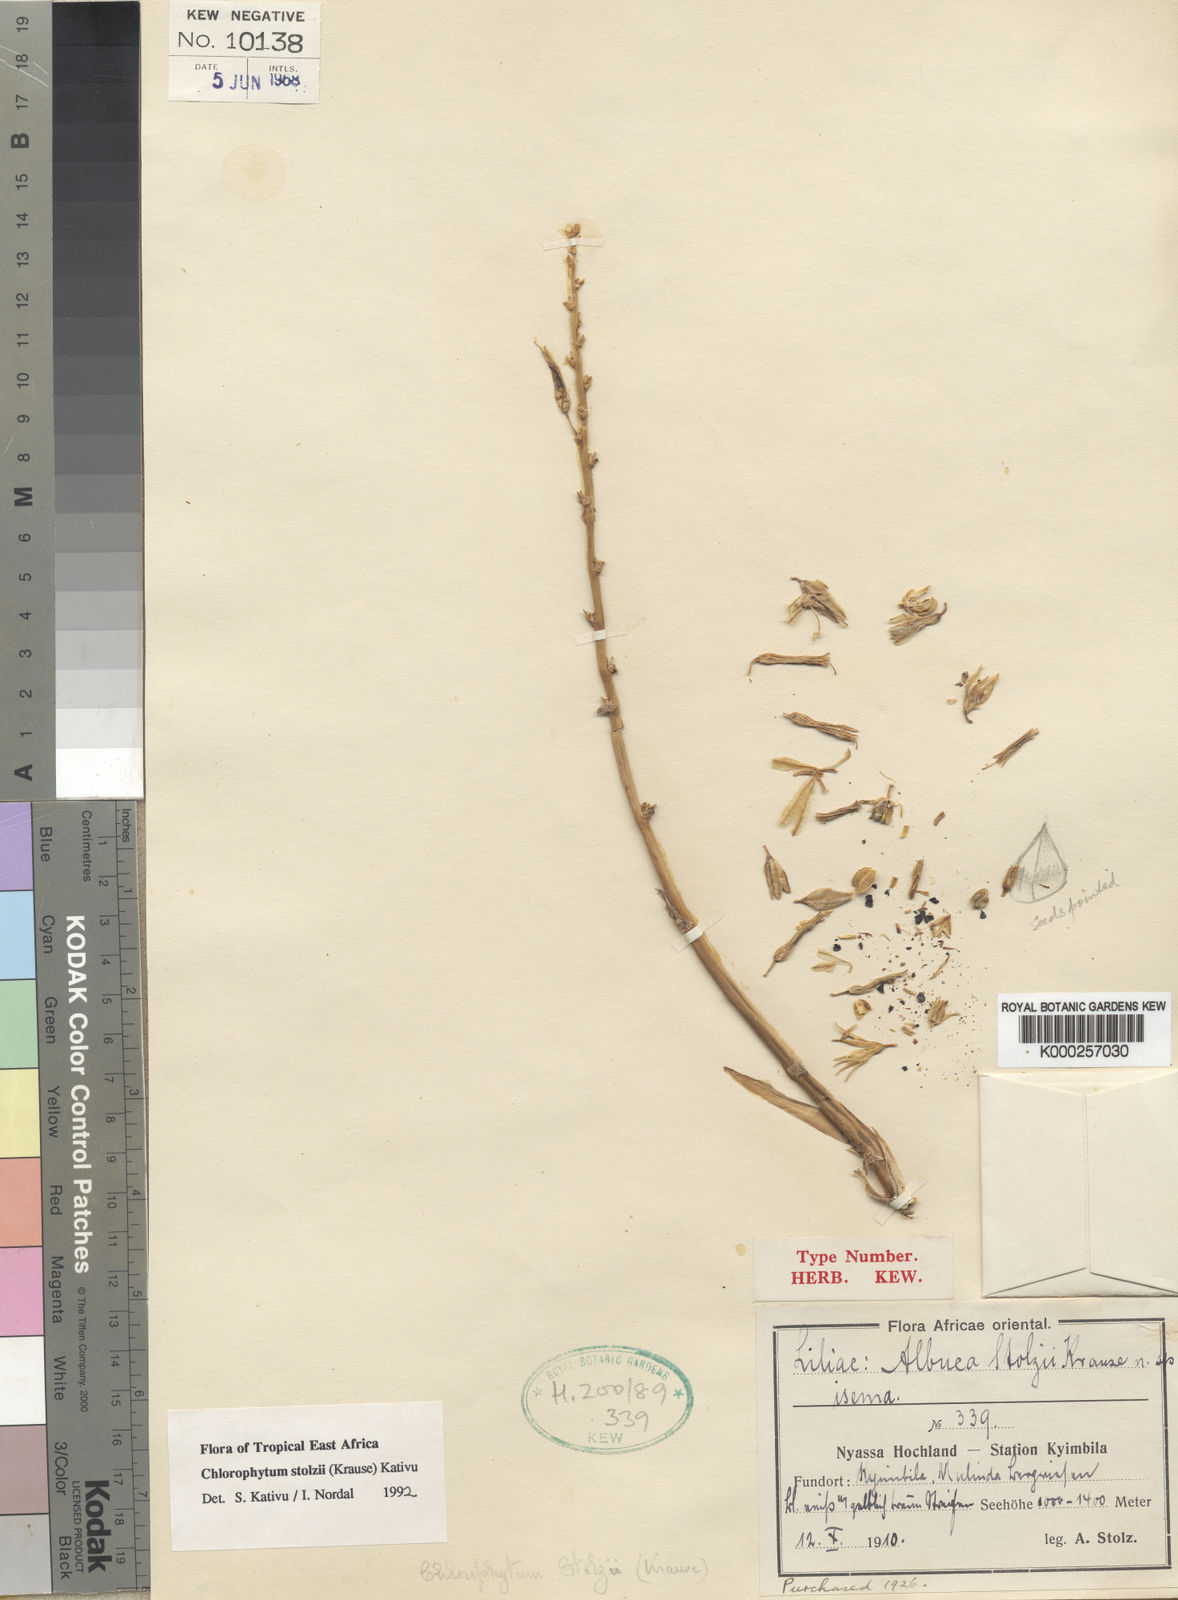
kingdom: Plantae
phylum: Tracheophyta
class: Liliopsida
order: Asparagales
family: Asparagaceae
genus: Chlorophytum
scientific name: Chlorophytum
